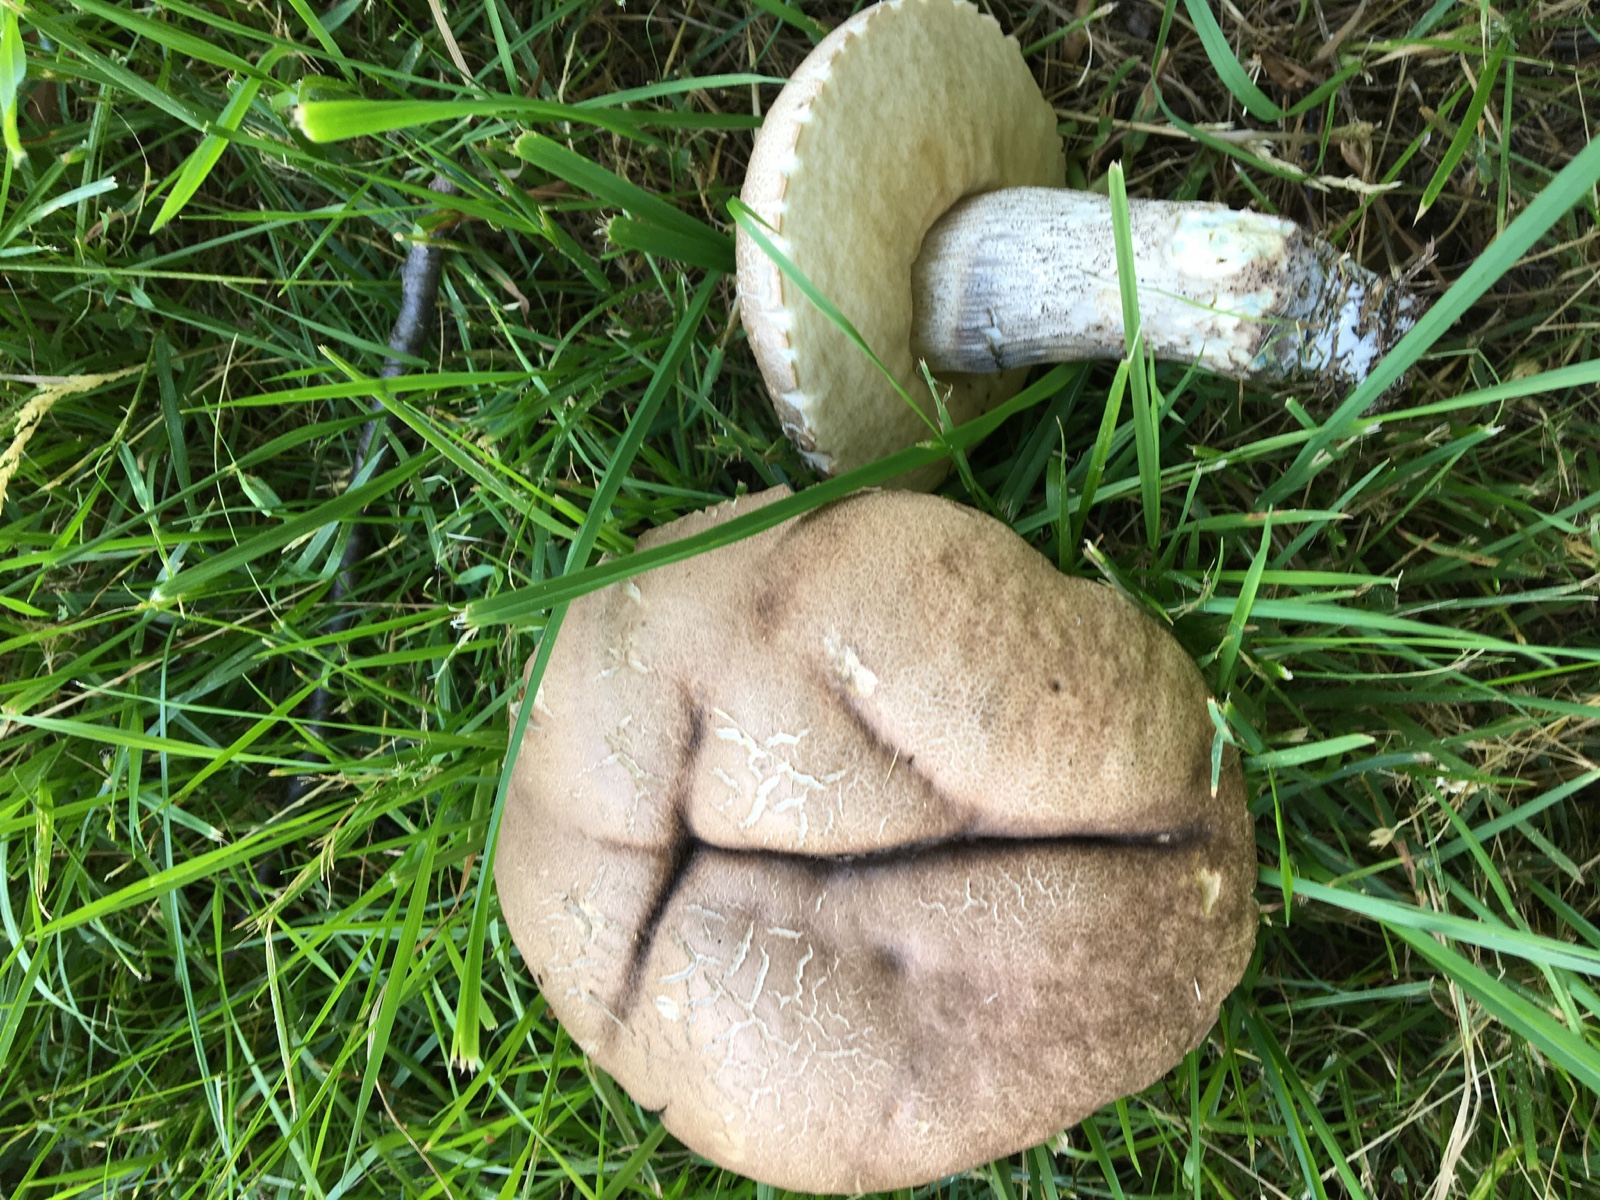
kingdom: Fungi
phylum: Basidiomycota
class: Agaricomycetes
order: Boletales
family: Boletaceae
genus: Leccinum
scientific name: Leccinum duriusculum
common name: poppel-skælrørhat
